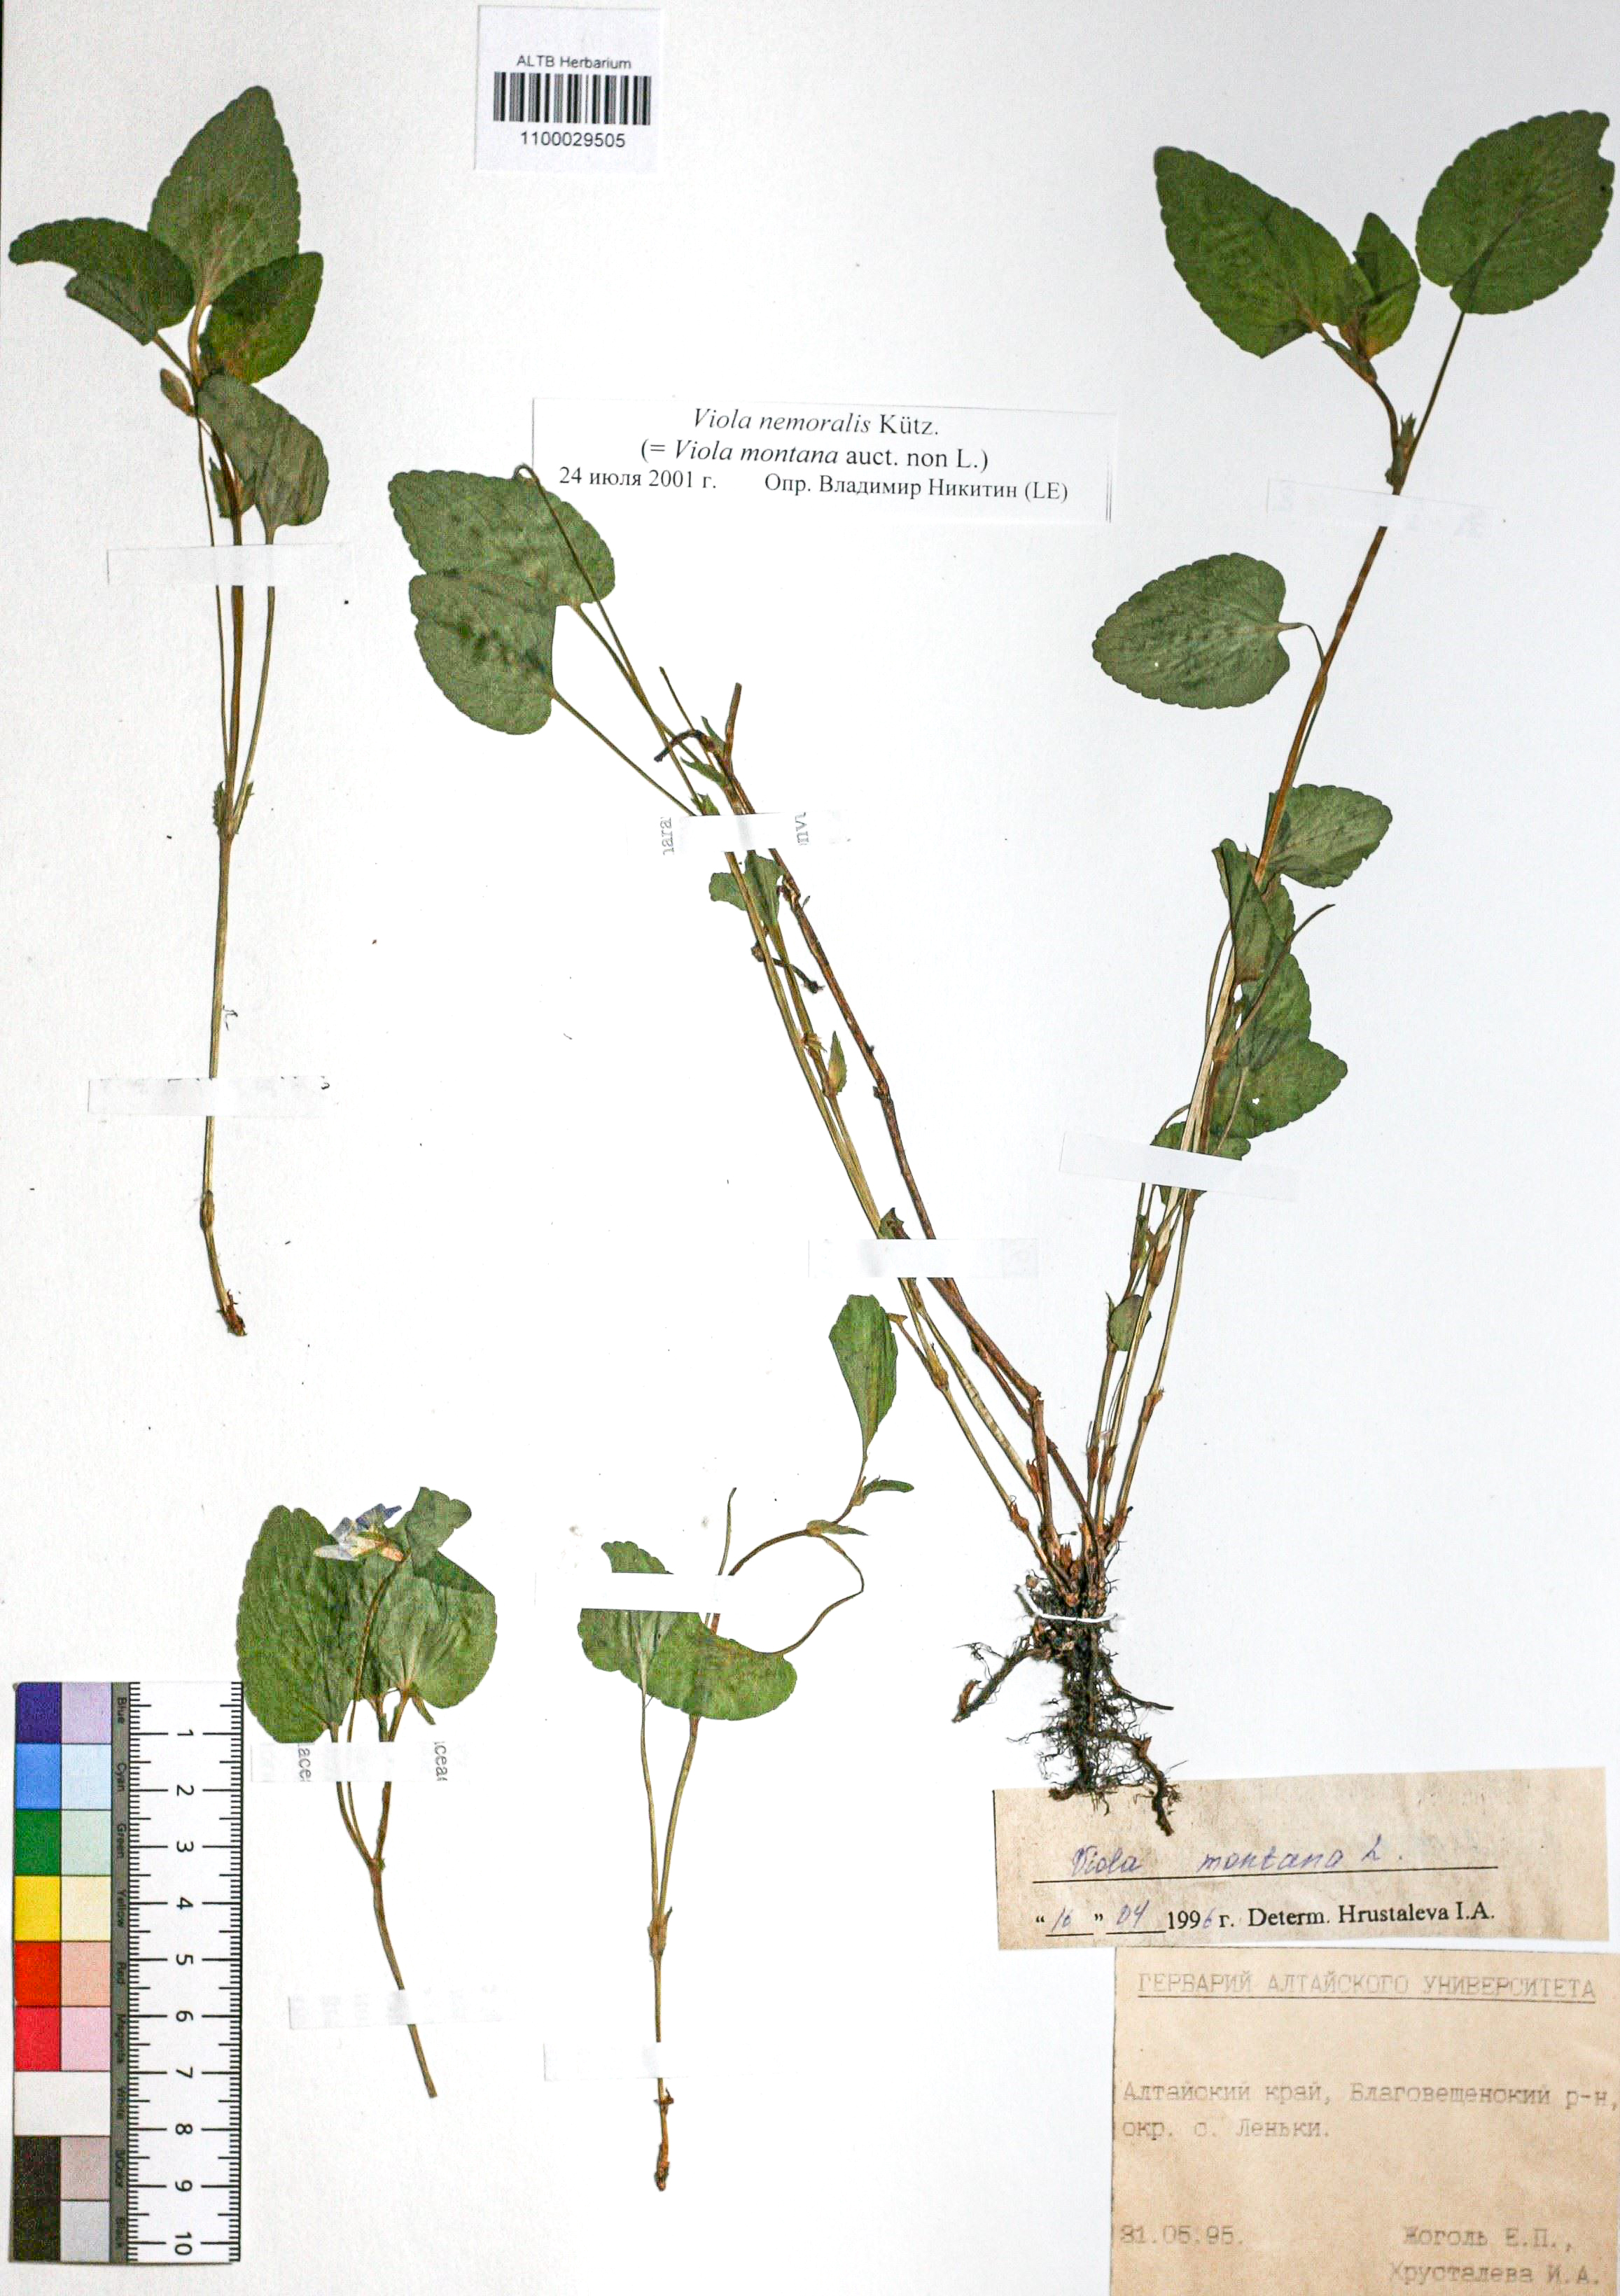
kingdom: Plantae
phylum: Tracheophyta
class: Magnoliopsida
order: Malpighiales
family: Violaceae
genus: Viola
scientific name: Viola ruppii
